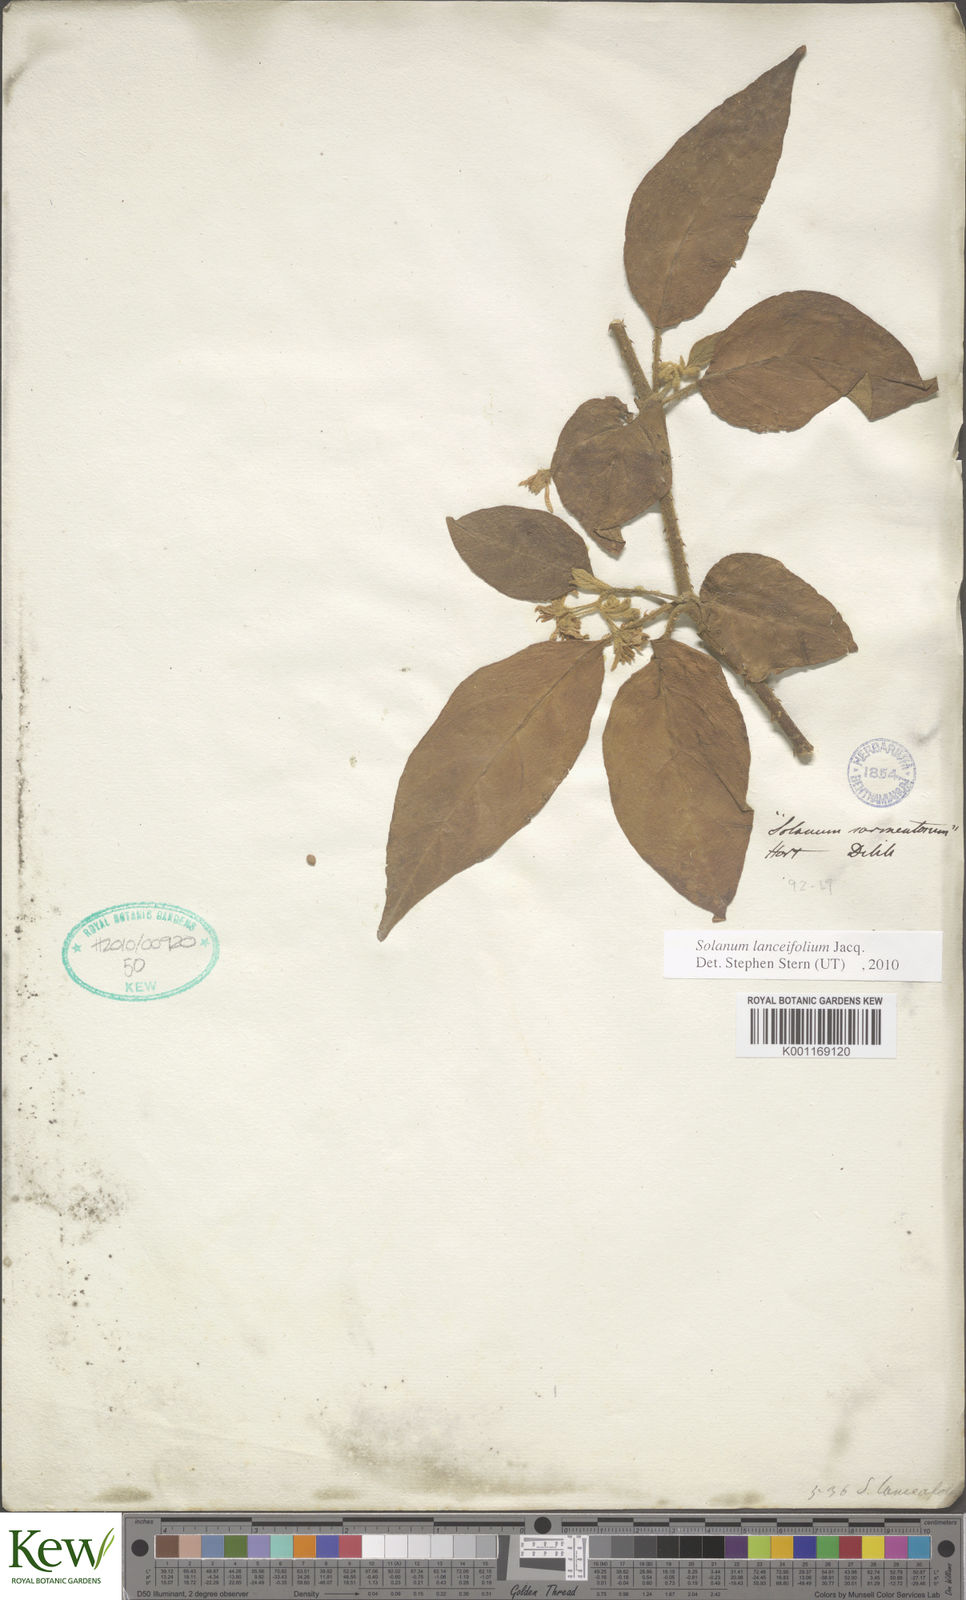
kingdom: Plantae
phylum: Tracheophyta
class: Magnoliopsida
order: Solanales
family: Solanaceae
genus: Solanum
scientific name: Solanum lanceifolium
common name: Lanceleaf nightshade
